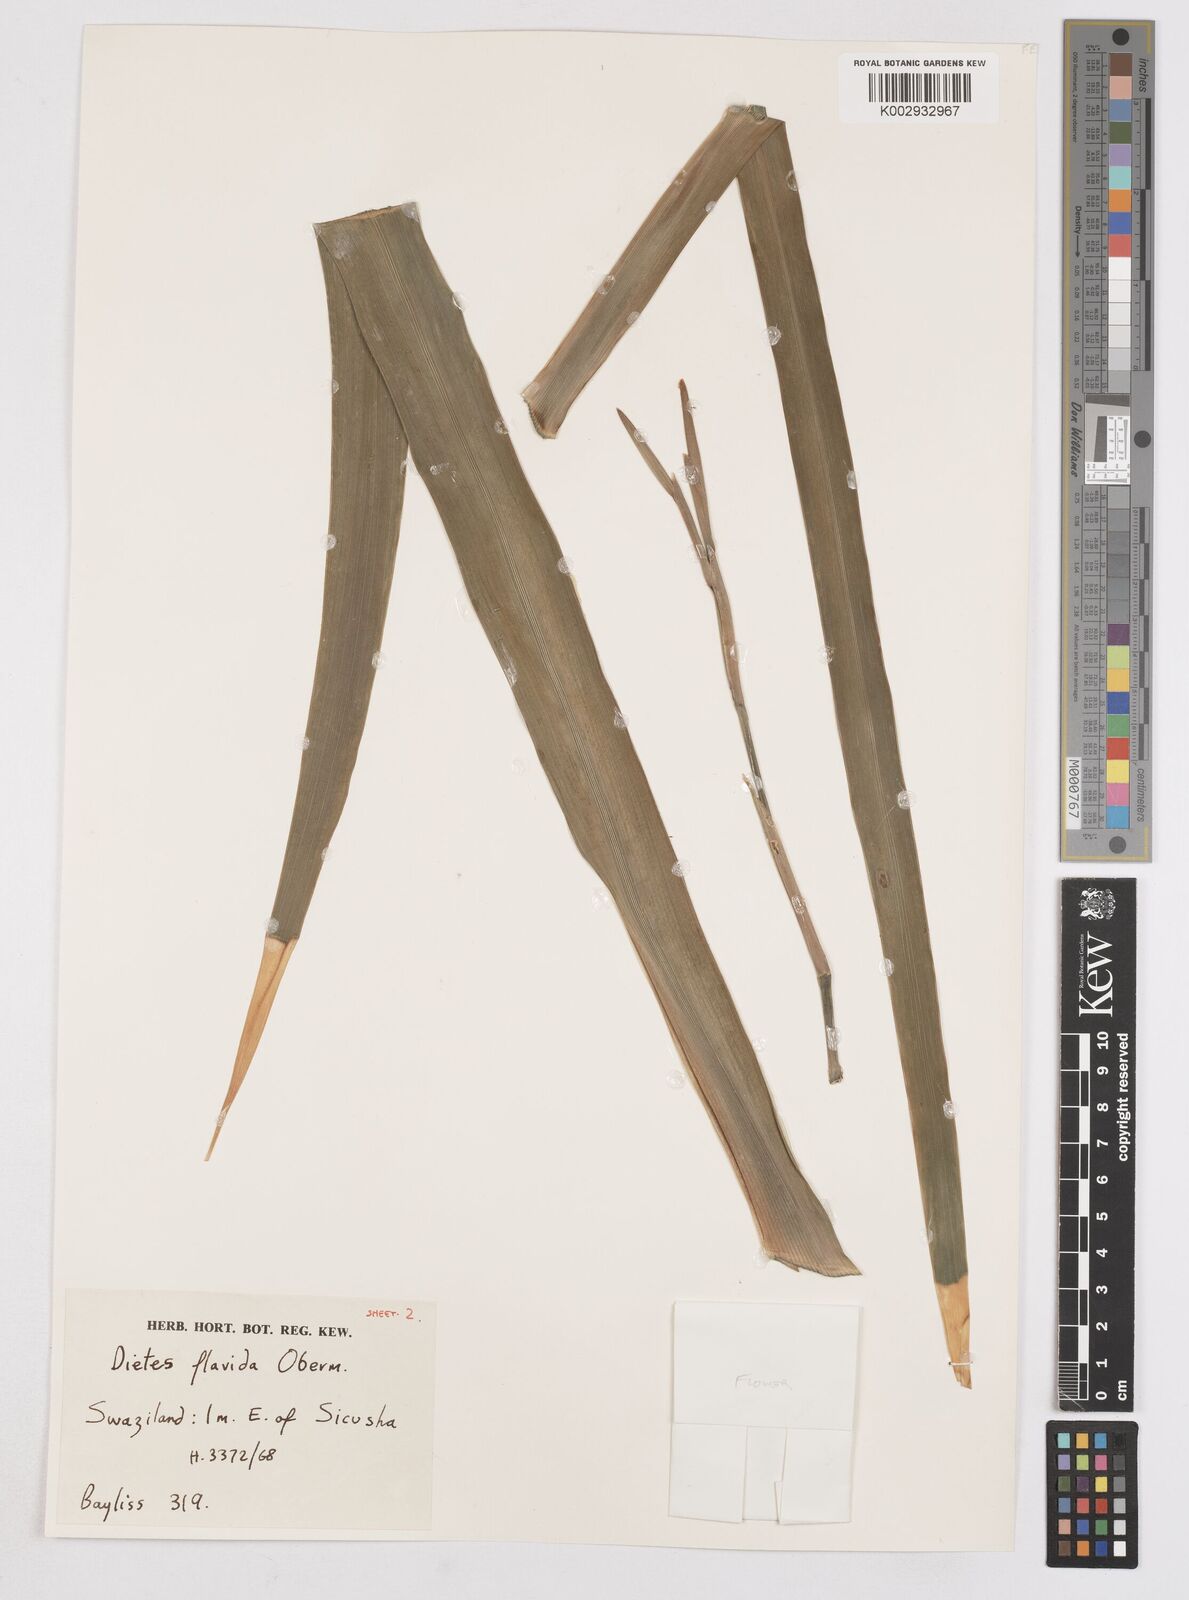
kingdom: Plantae
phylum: Tracheophyta
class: Liliopsida
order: Asparagales
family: Iridaceae
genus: Dietes
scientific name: Dietes flavida
